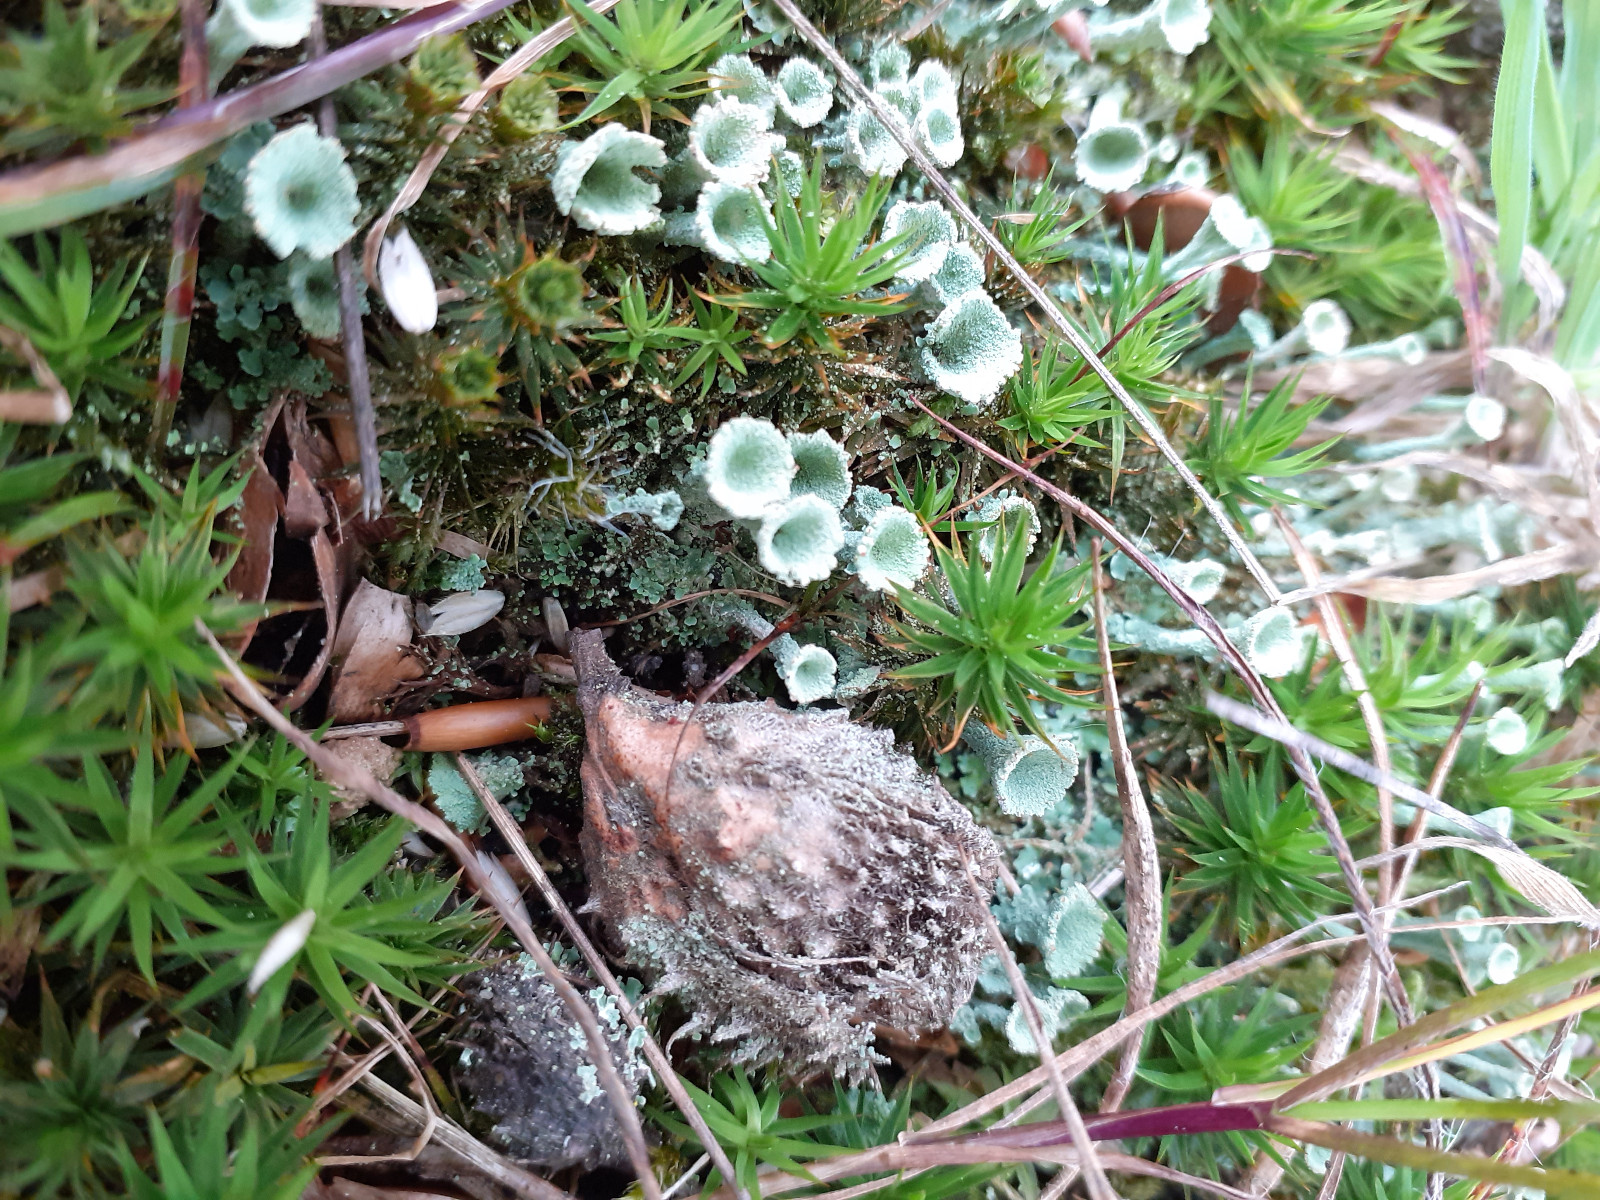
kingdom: Fungi
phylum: Ascomycota
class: Lecanoromycetes
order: Lecanorales
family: Cladoniaceae
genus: Cladonia
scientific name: Cladonia
